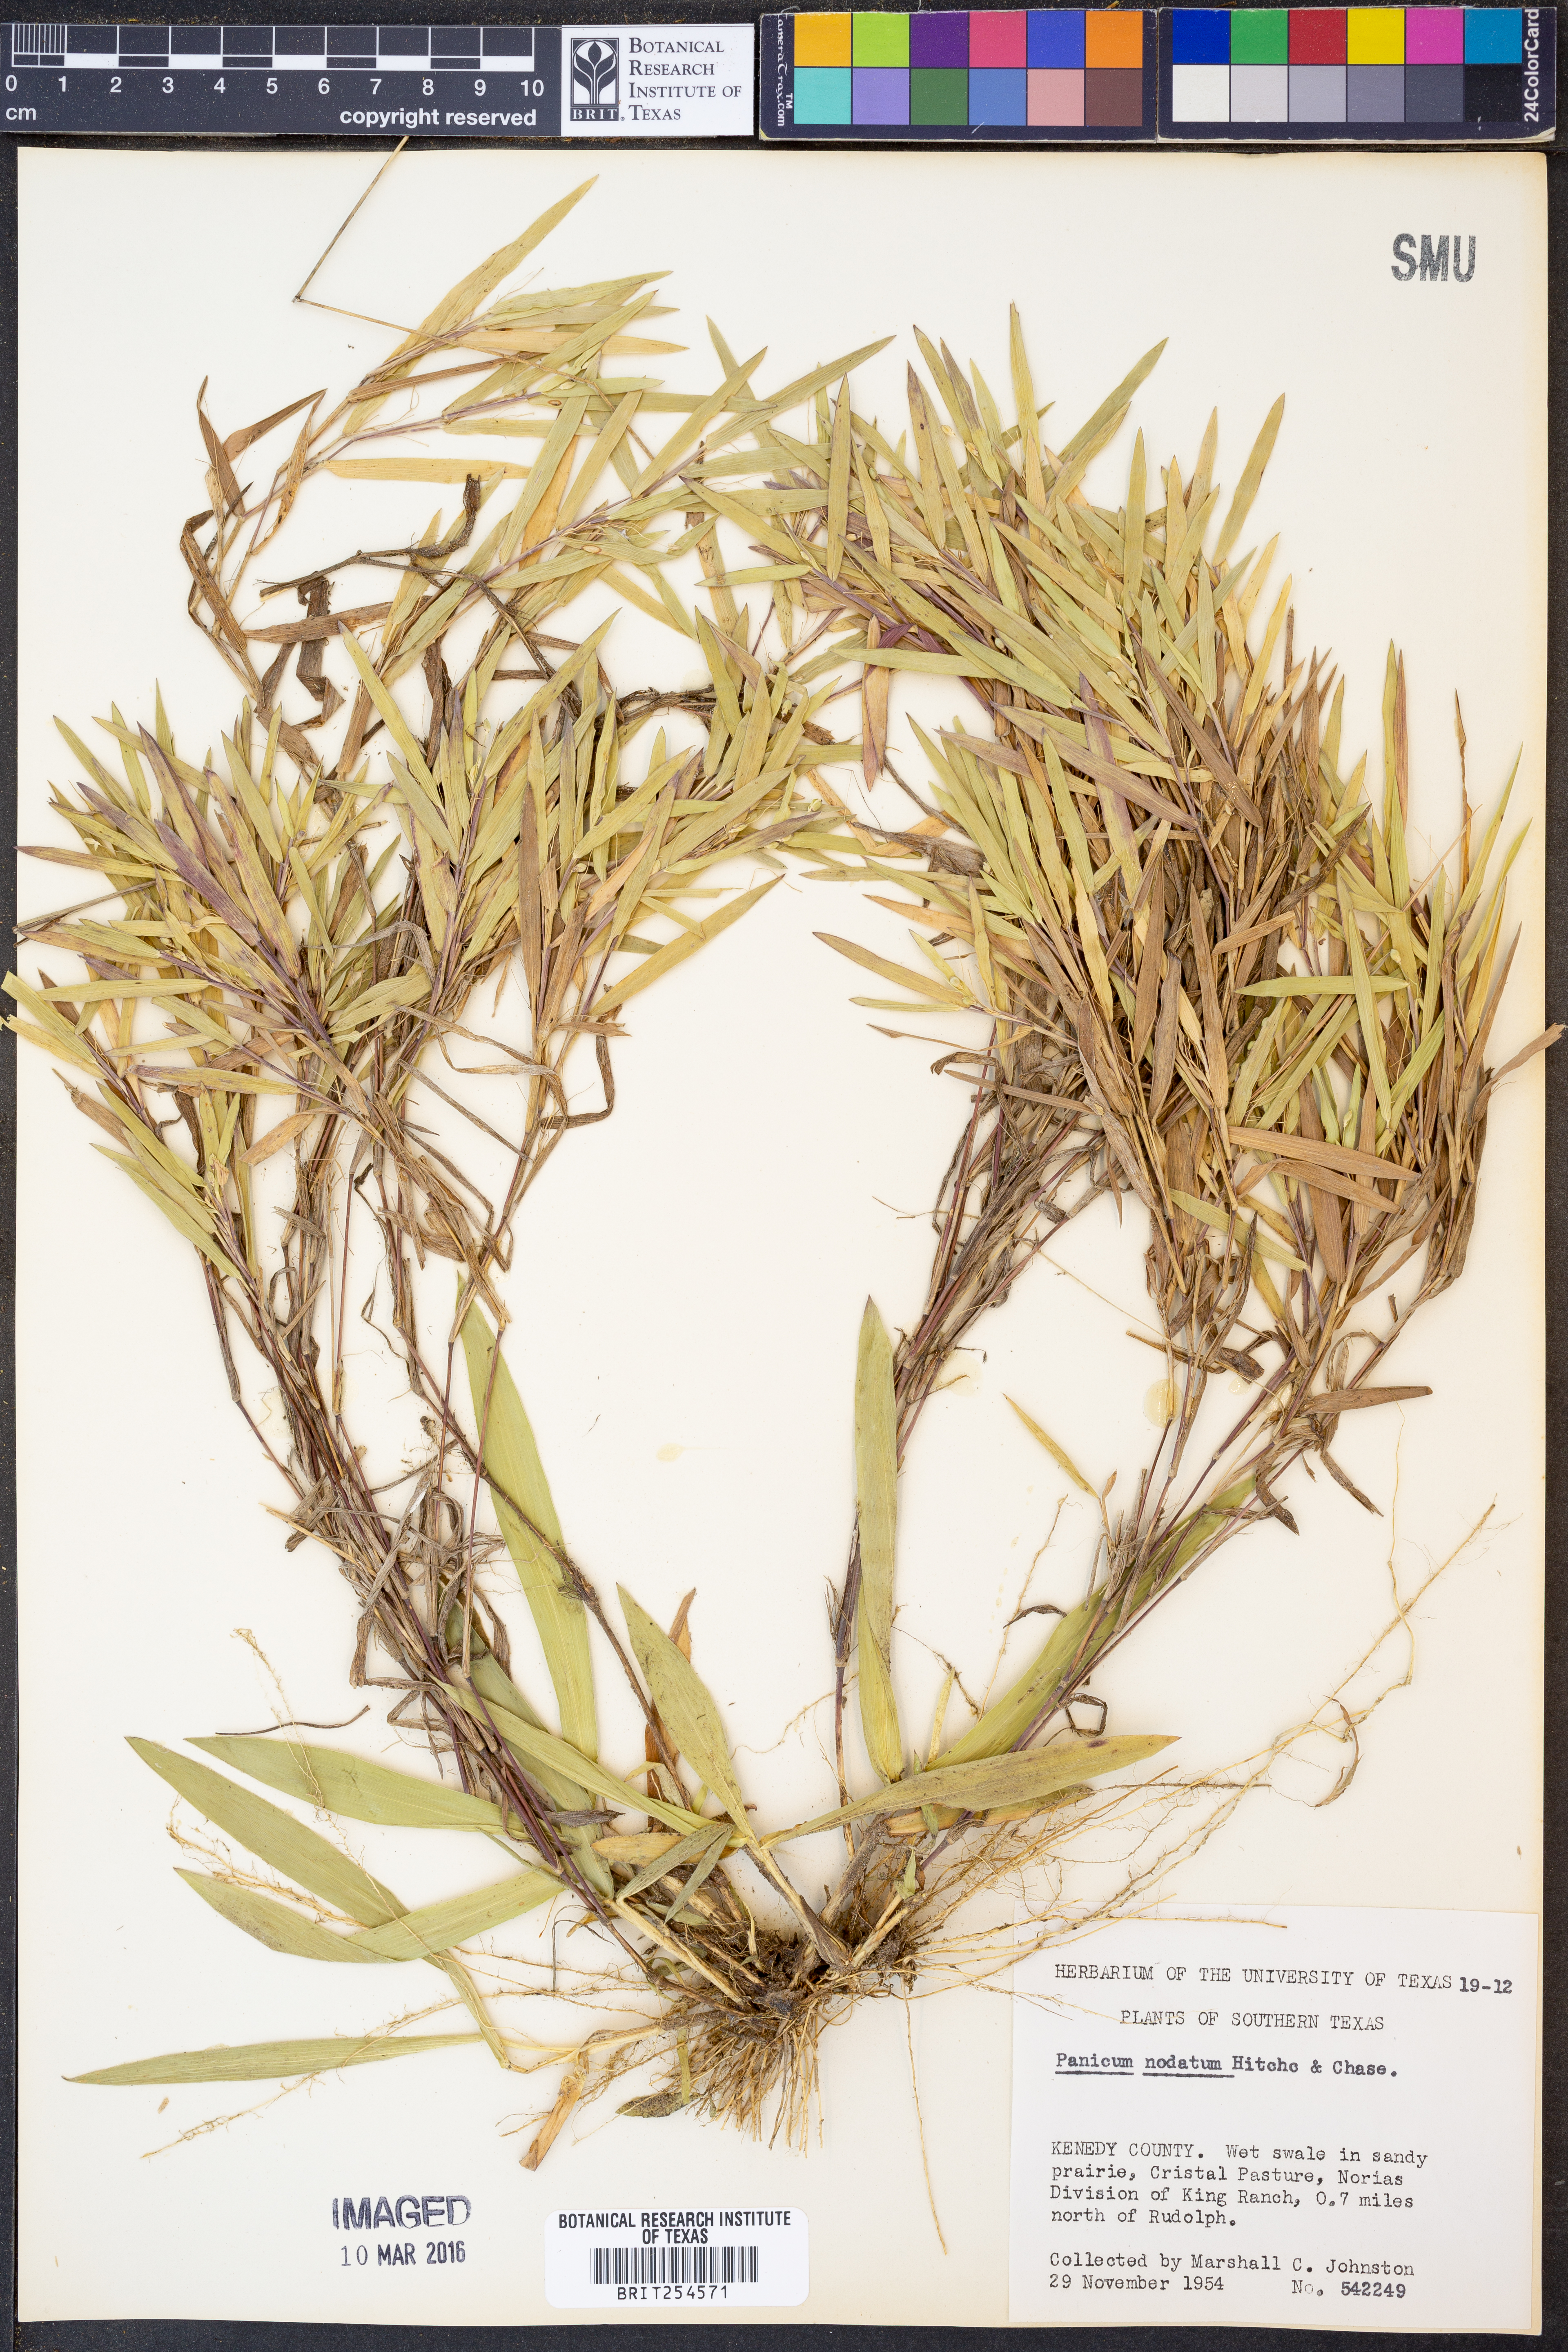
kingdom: Plantae
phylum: Tracheophyta
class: Liliopsida
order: Poales
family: Poaceae
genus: Dichanthelium
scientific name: Dichanthelium nodatum
